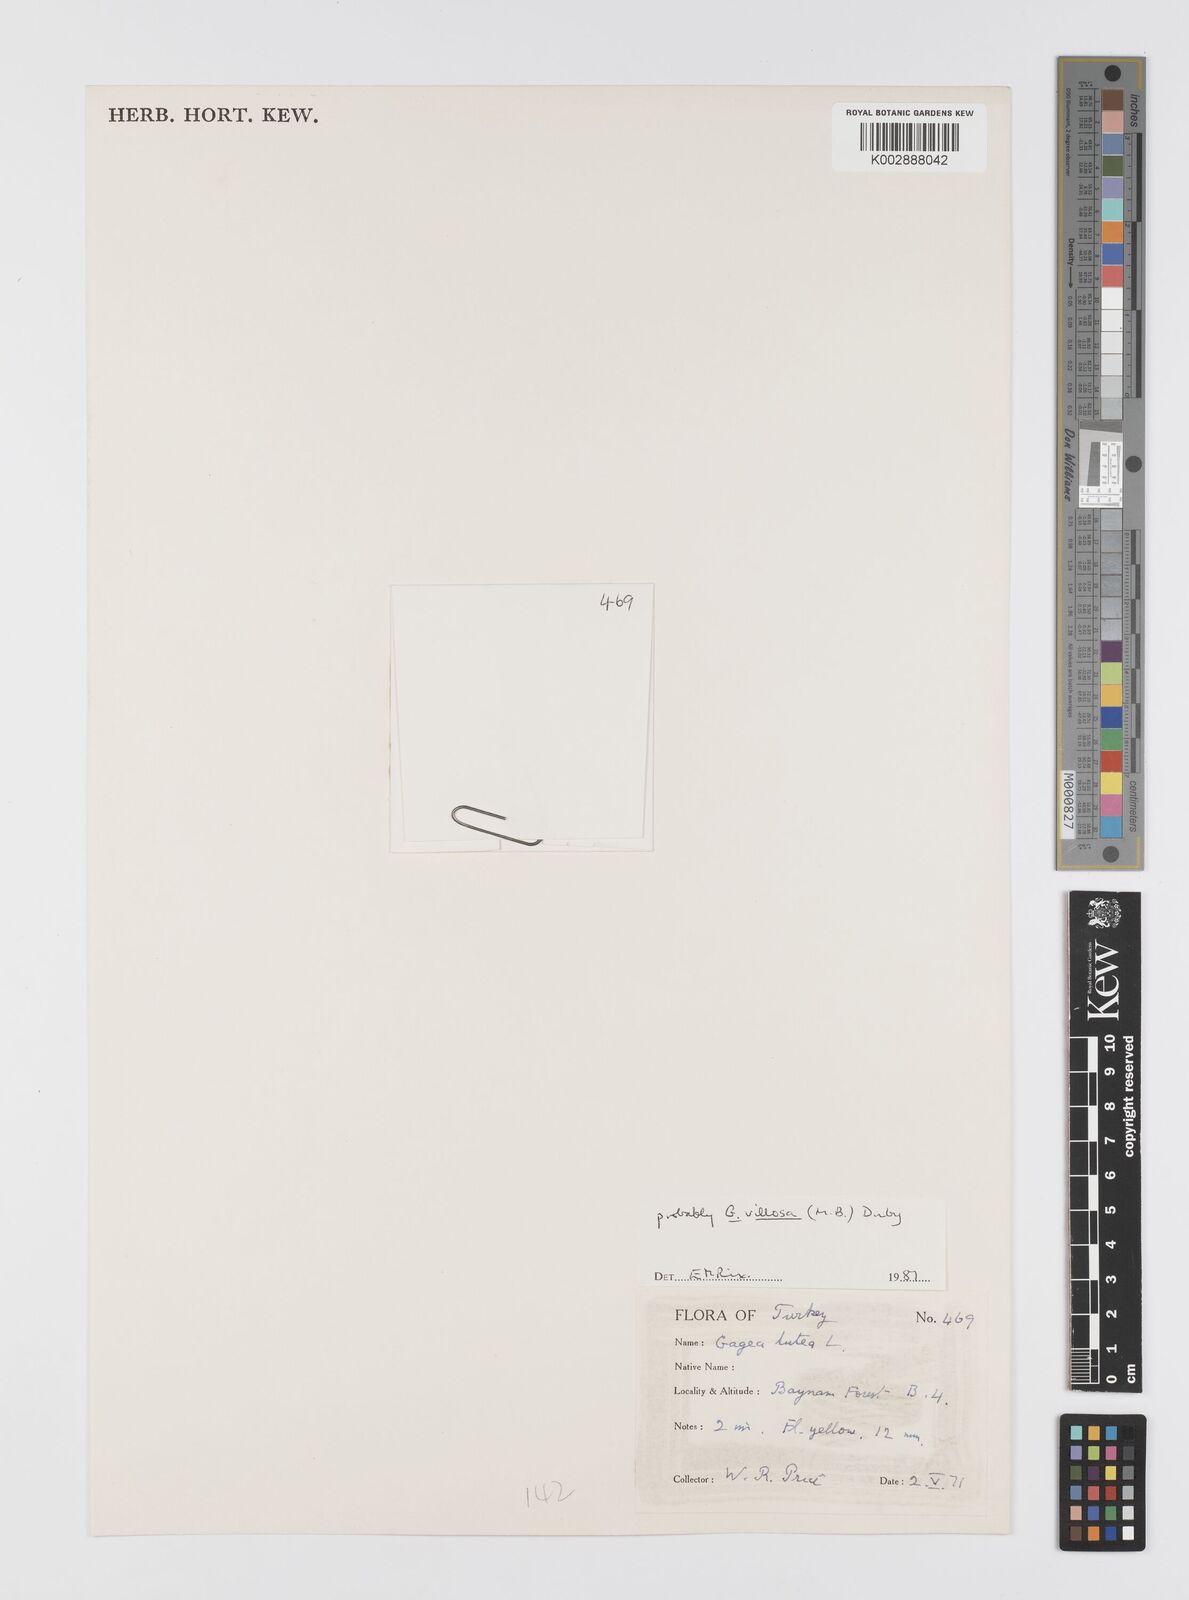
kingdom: Plantae
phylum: Tracheophyta
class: Liliopsida
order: Liliales
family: Liliaceae
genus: Gagea
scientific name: Gagea lutea
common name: Yellow star-of-bethlehem
